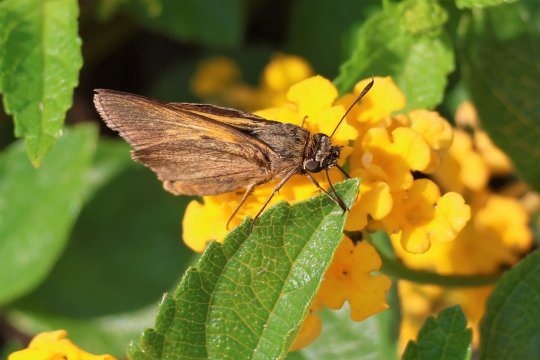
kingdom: Animalia
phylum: Arthropoda
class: Insecta
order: Lepidoptera
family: Hesperiidae
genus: Euphyes
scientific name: Euphyes pilatka
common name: Palatka Skipper
